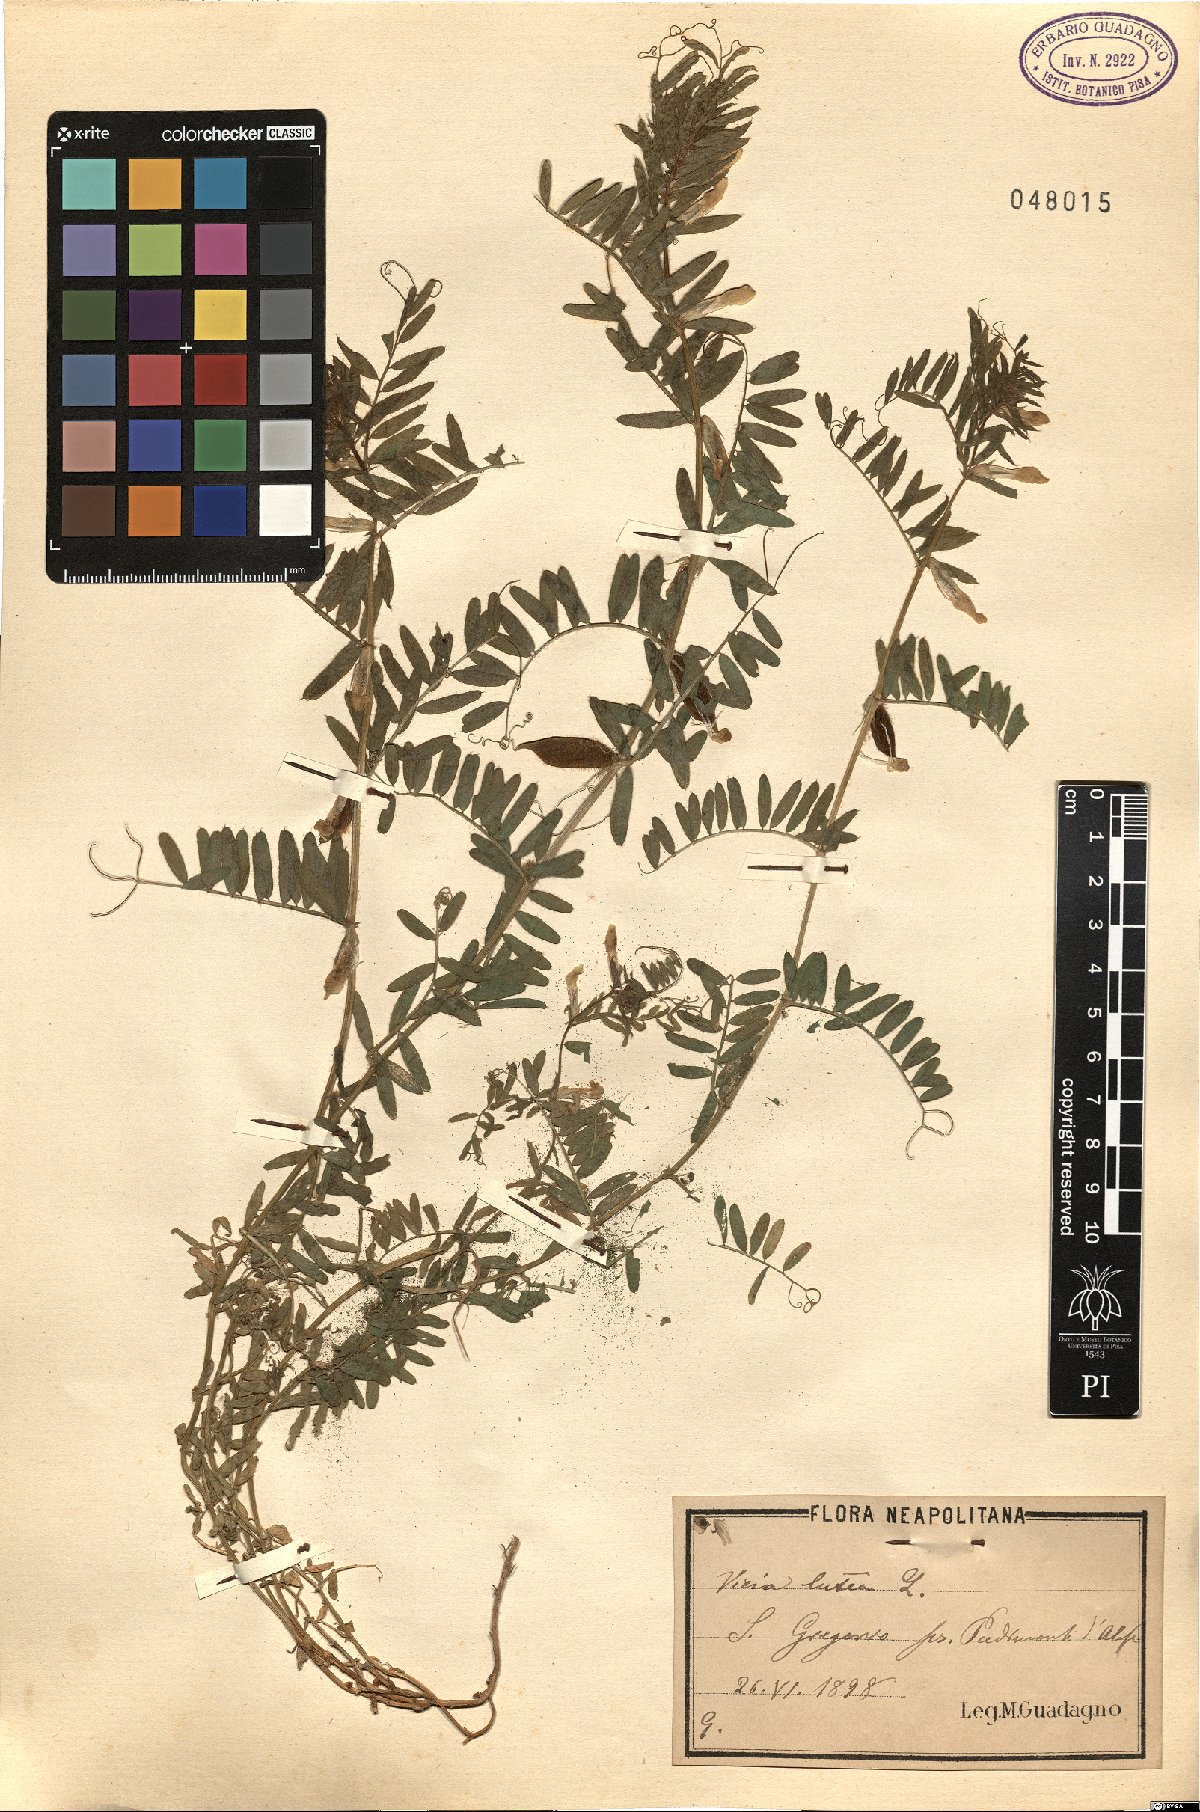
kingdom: Plantae
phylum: Tracheophyta
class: Magnoliopsida
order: Fabales
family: Fabaceae
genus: Vicia
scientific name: Vicia lutea
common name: Smooth yellow vetch
